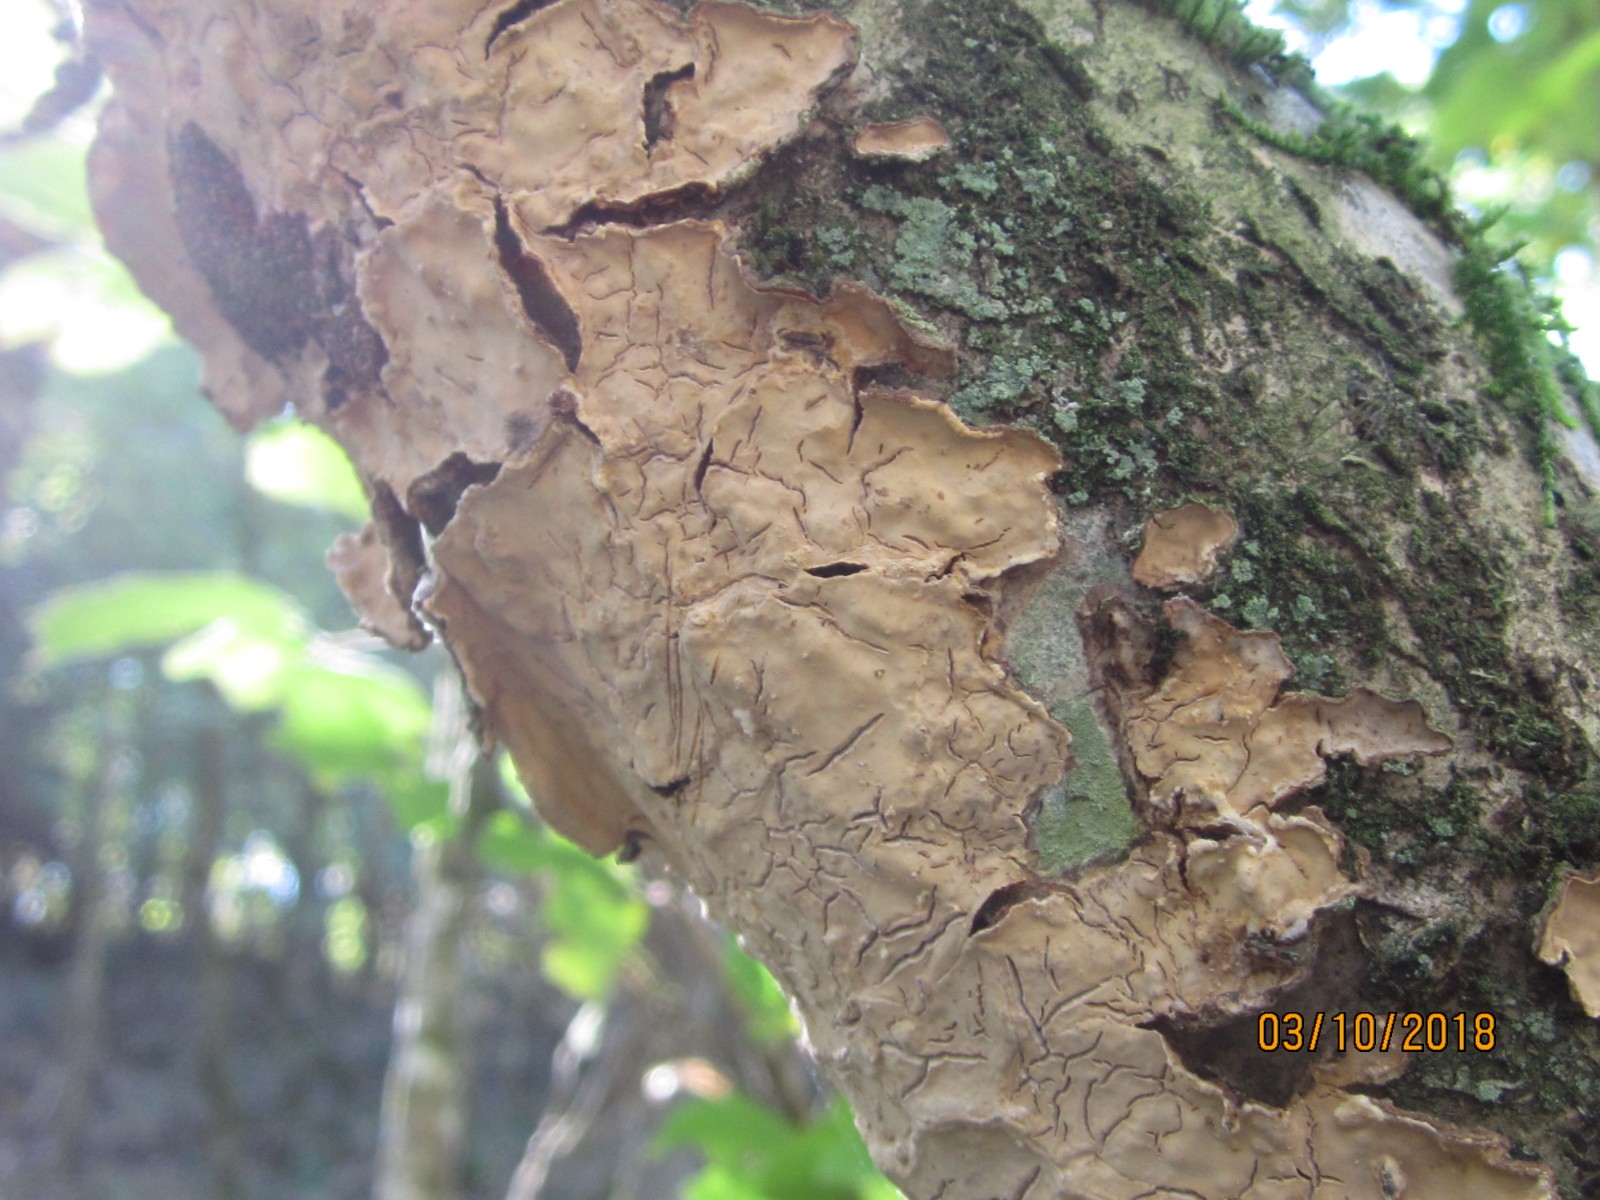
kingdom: Fungi
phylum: Basidiomycota
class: Agaricomycetes
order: Russulales
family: Stereaceae
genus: Stereum
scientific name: Stereum rugosum
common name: rynket lædersvamp
